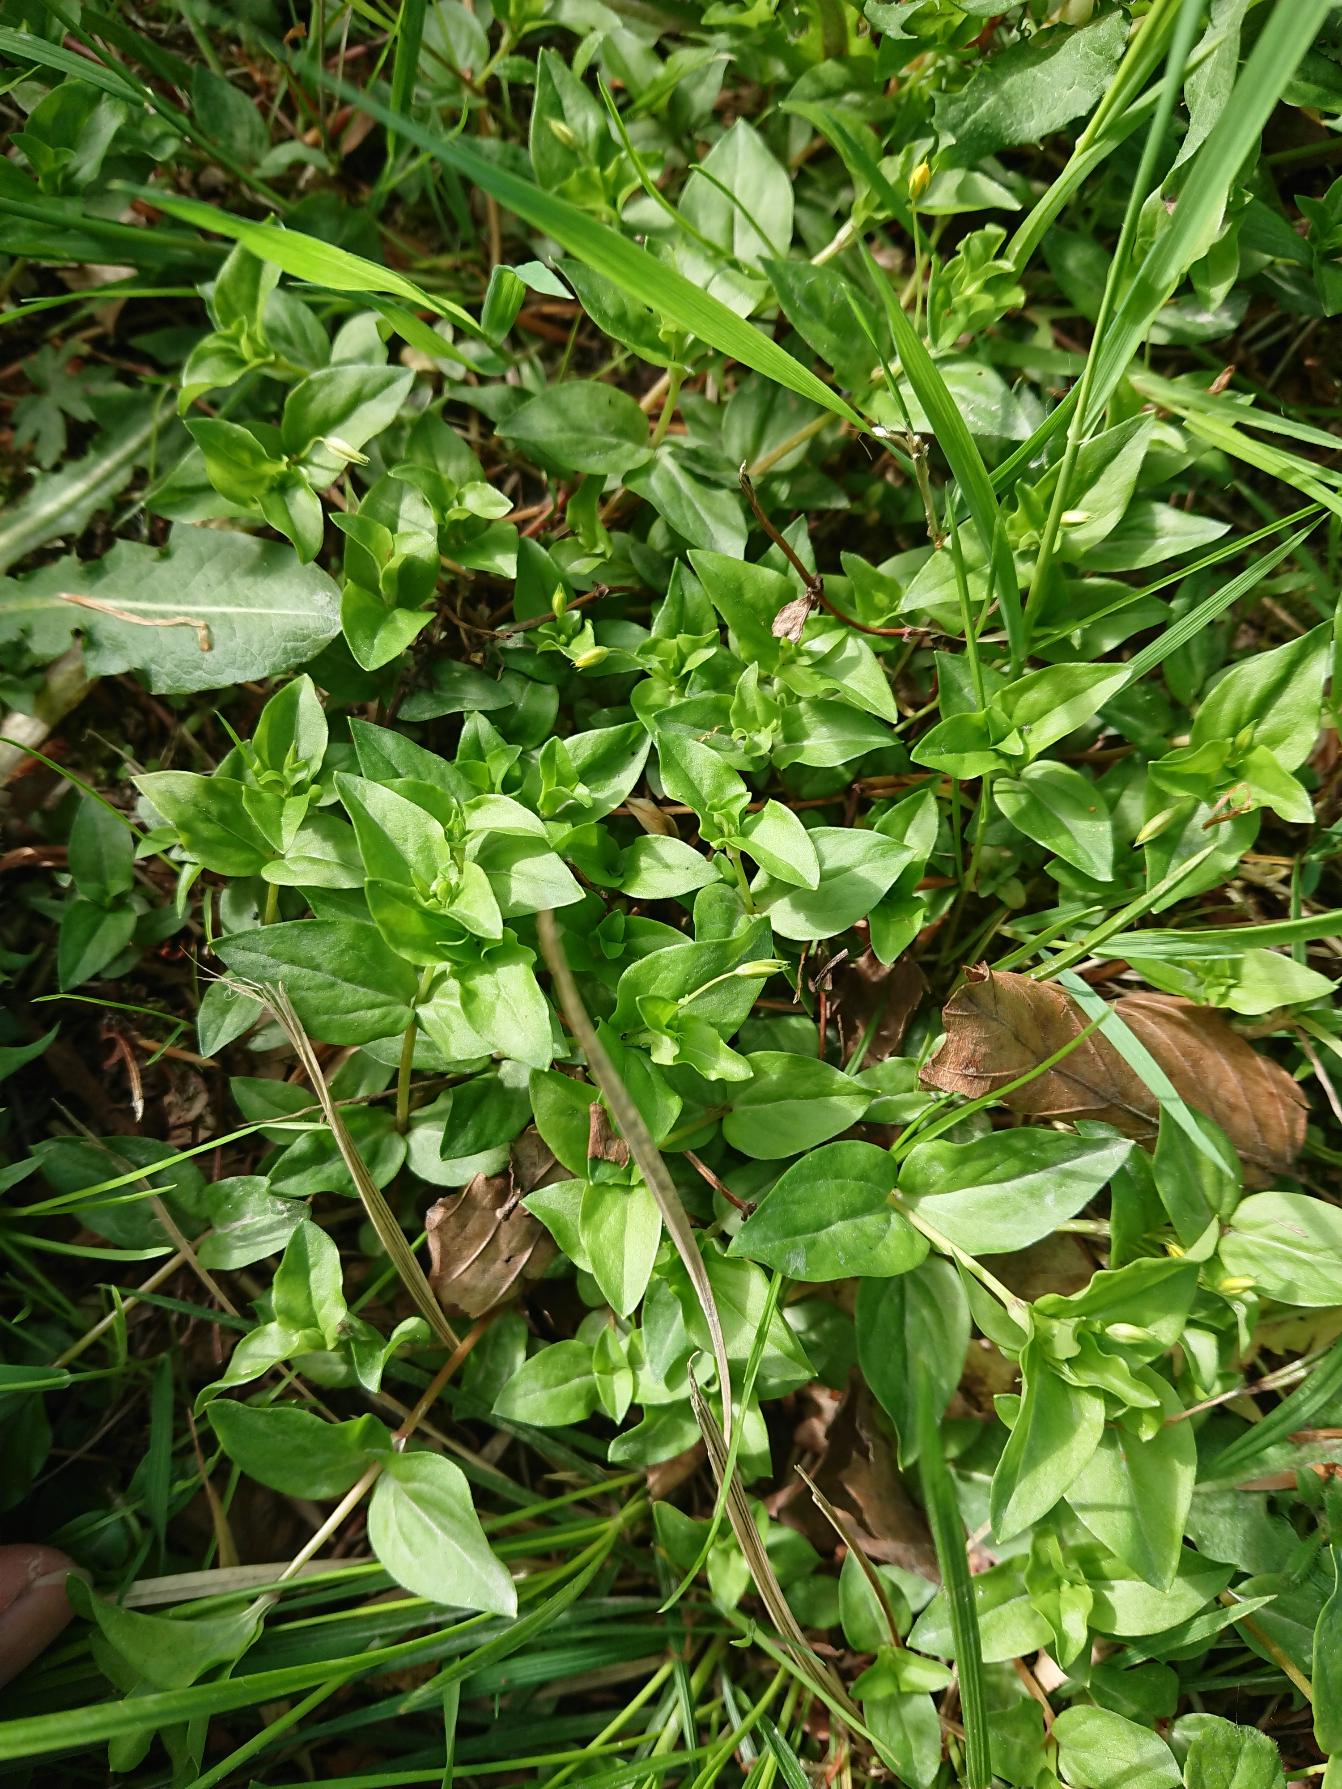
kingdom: Plantae
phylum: Tracheophyta
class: Magnoliopsida
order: Ericales
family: Primulaceae
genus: Lysimachia
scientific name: Lysimachia nemorum
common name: Lund-fredløs
